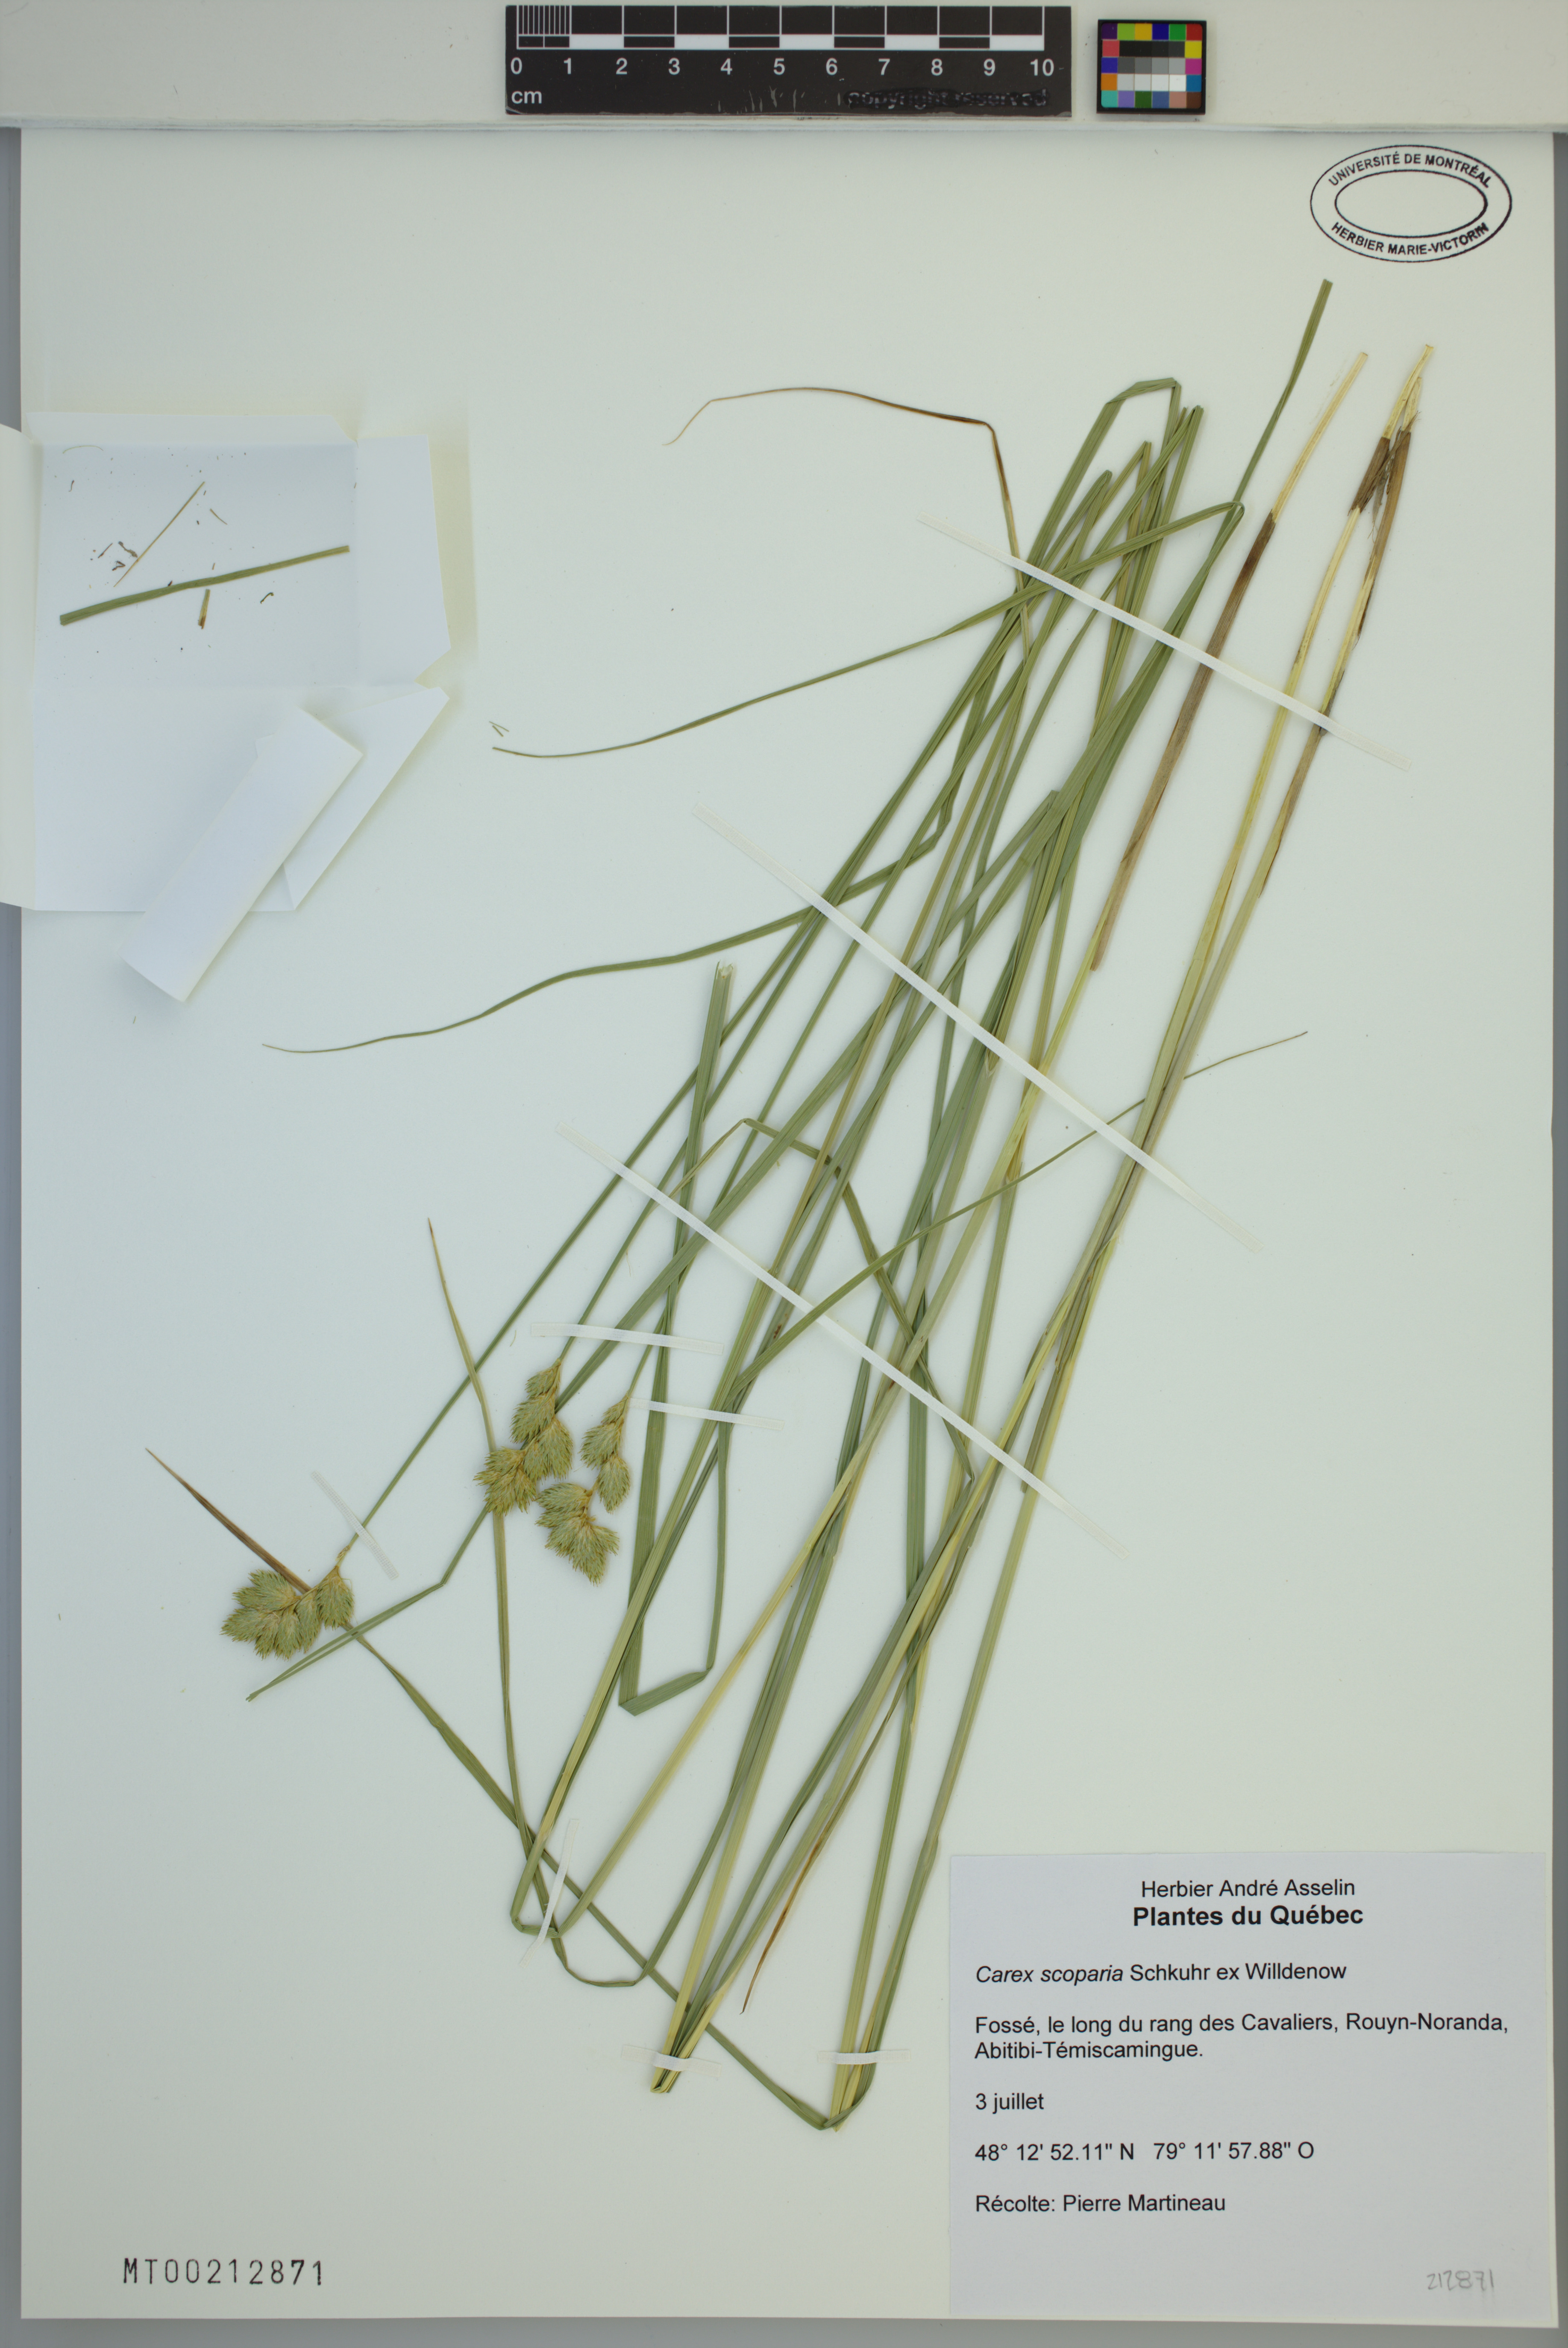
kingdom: Plantae
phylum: Tracheophyta
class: Liliopsida
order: Poales
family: Cyperaceae
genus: Carex
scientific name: Carex scoparia
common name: Broom sedge
